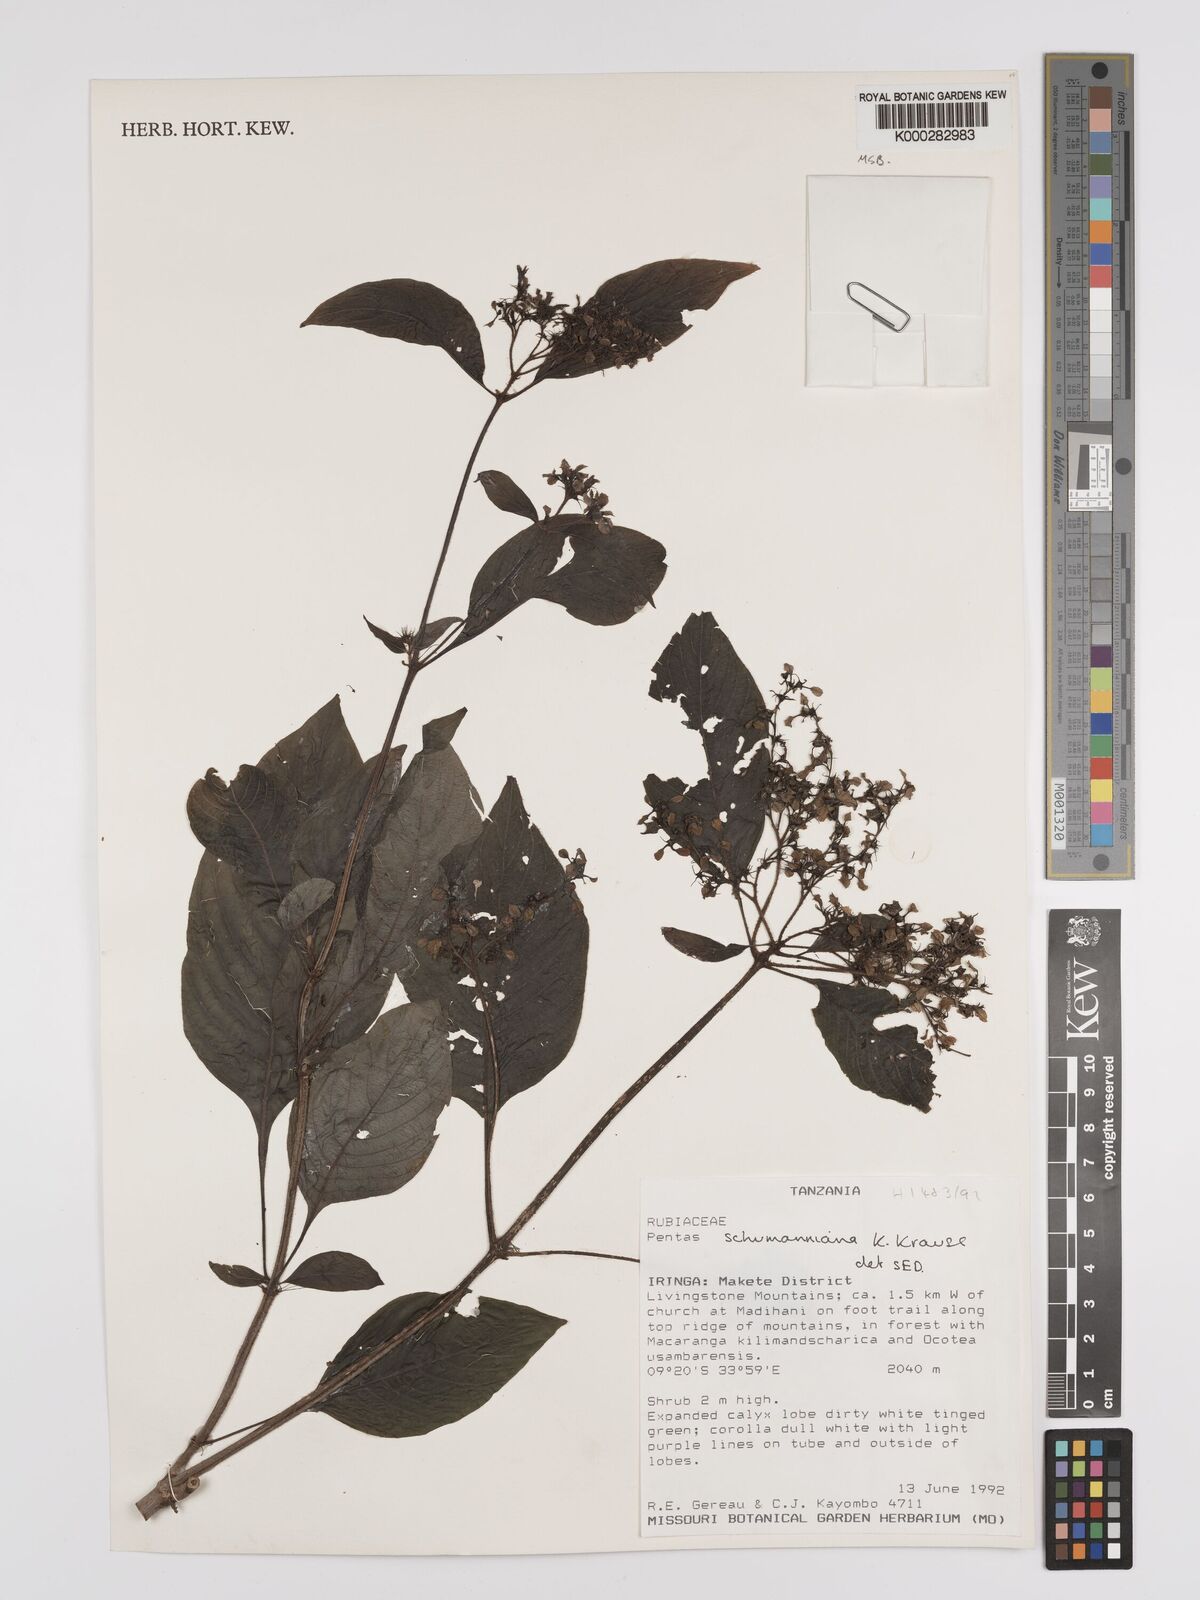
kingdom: Plantae
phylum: Tracheophyta
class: Magnoliopsida
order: Gentianales
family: Rubiaceae
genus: Phyllopentas
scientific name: Phyllopentas schumanniana
